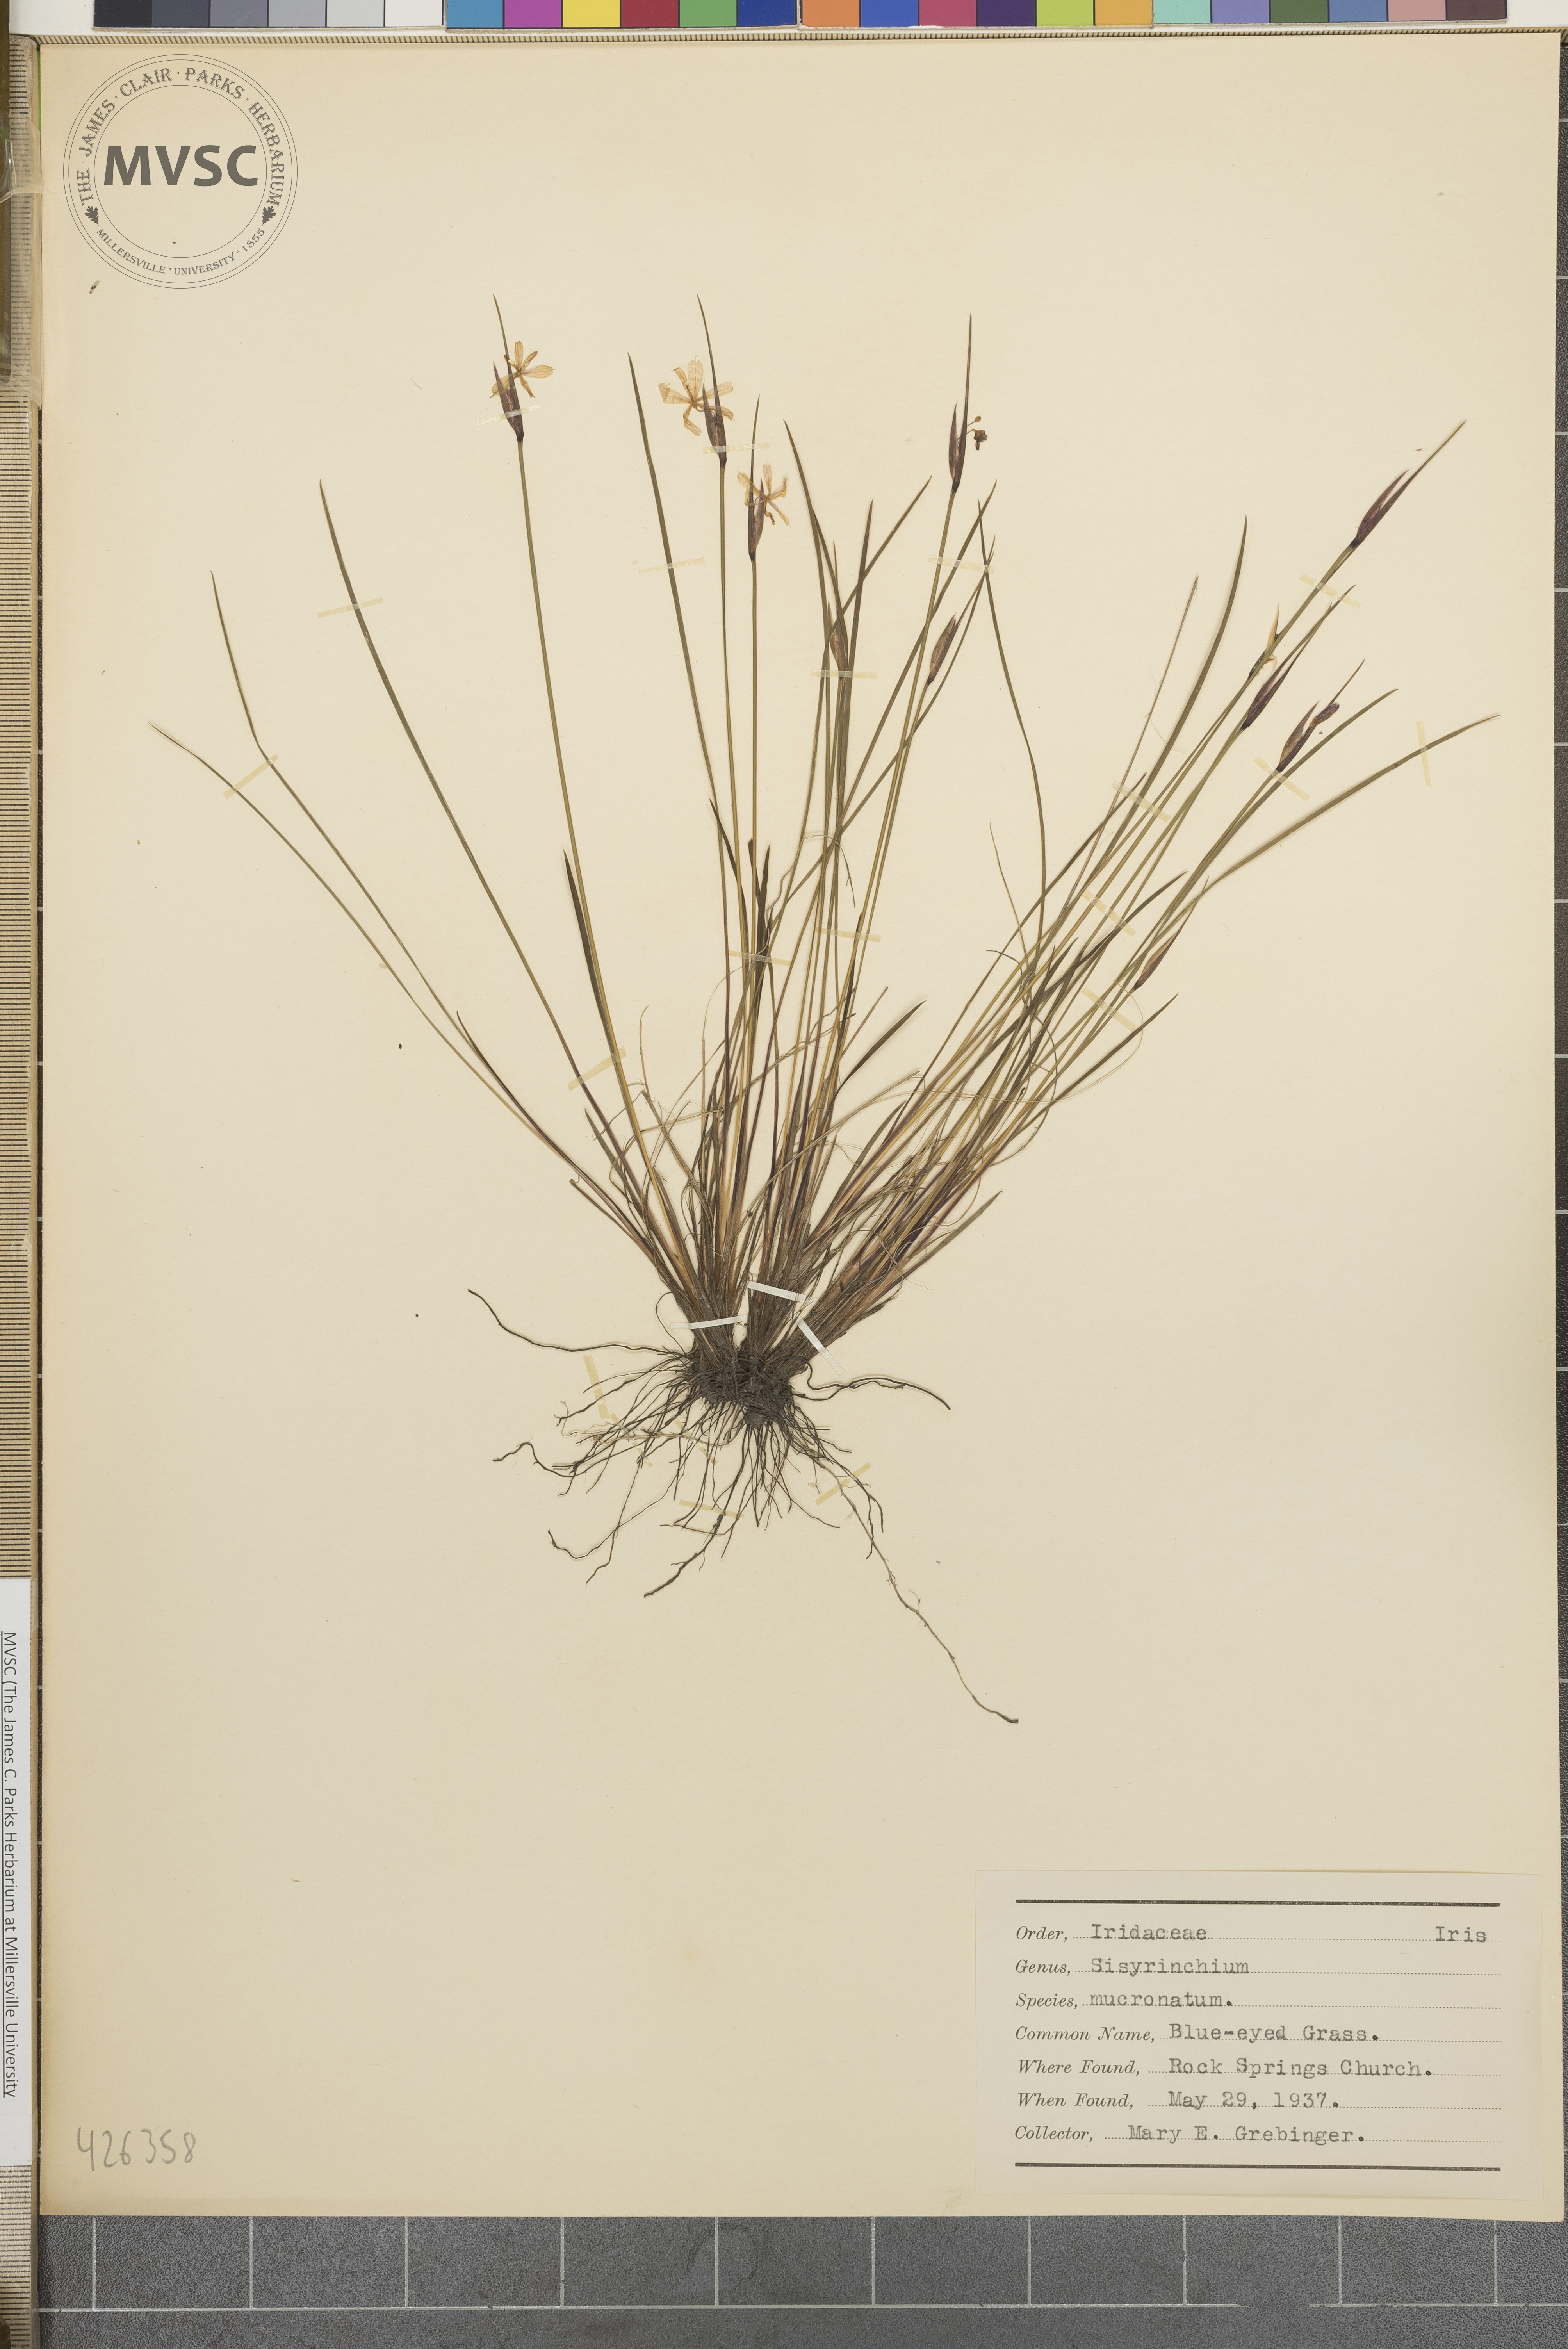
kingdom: Plantae
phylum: Tracheophyta
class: Liliopsida
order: Asparagales
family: Iridaceae
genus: Sisyrinchium
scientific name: Sisyrinchium mucronatum
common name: Blue-eyed grass
